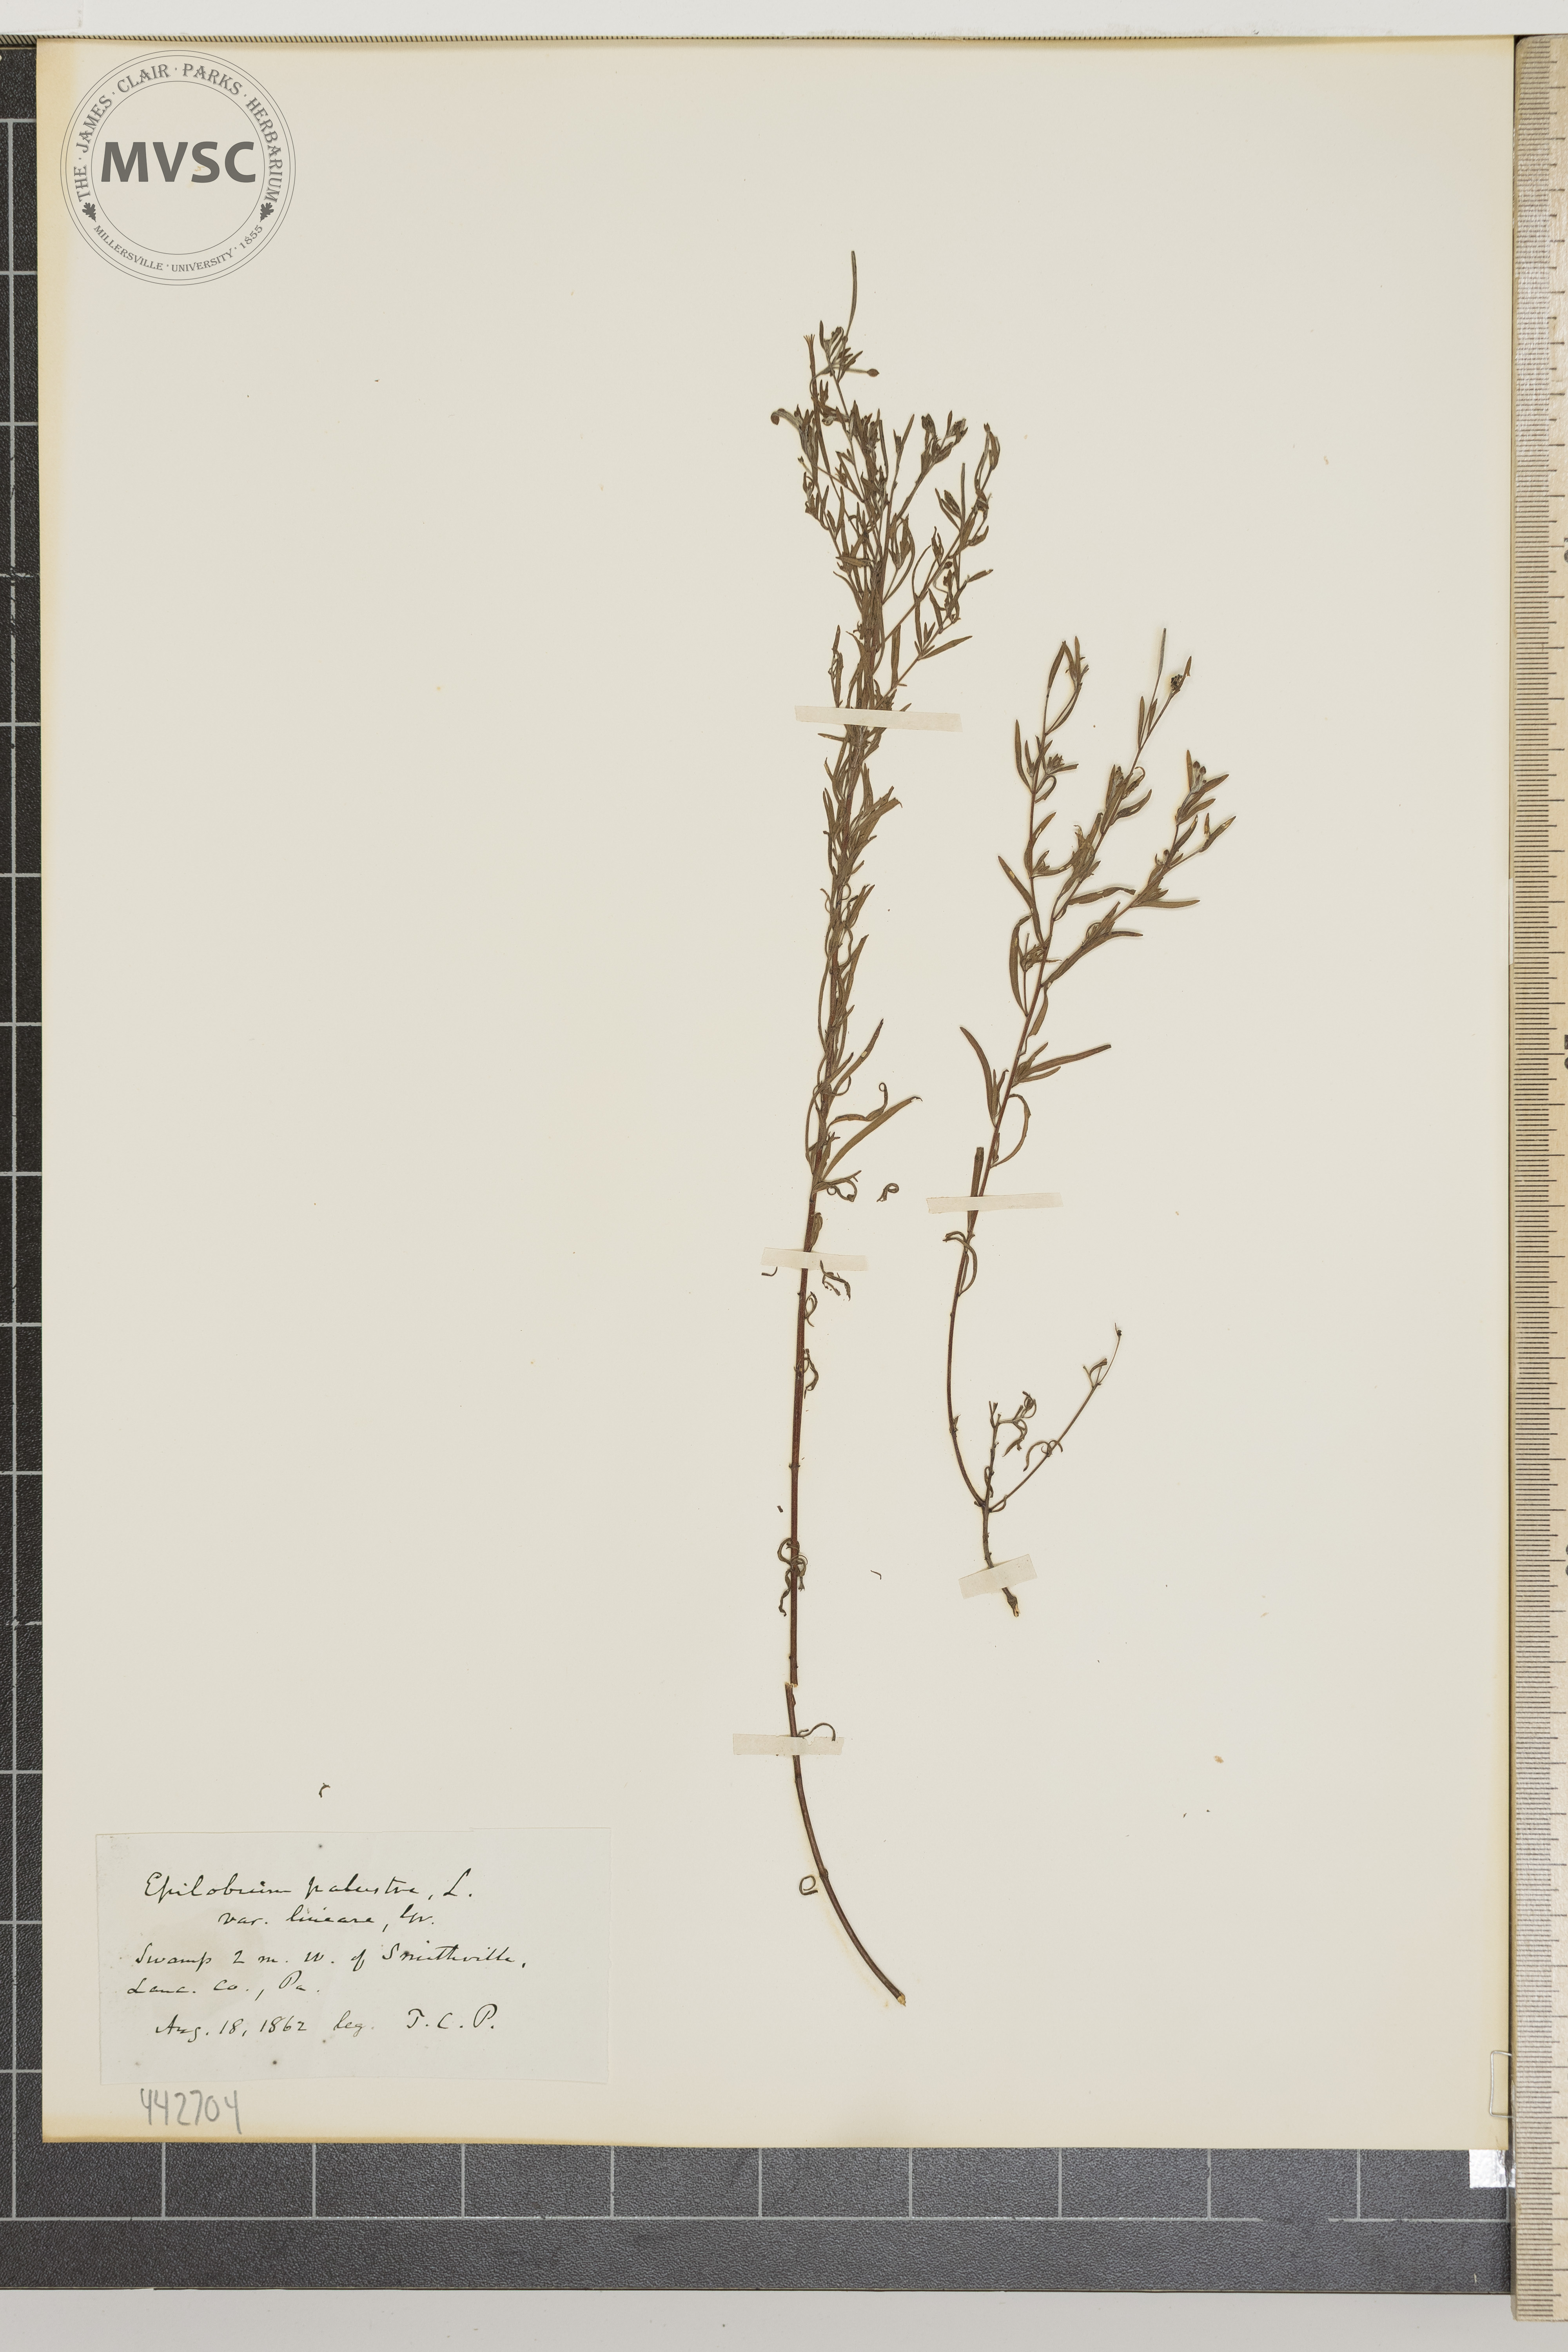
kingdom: Plantae
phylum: Tracheophyta
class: Magnoliopsida
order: Myrtales
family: Onagraceae
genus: Epilobium
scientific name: Epilobium leptophyllum
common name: Bog willowherb
